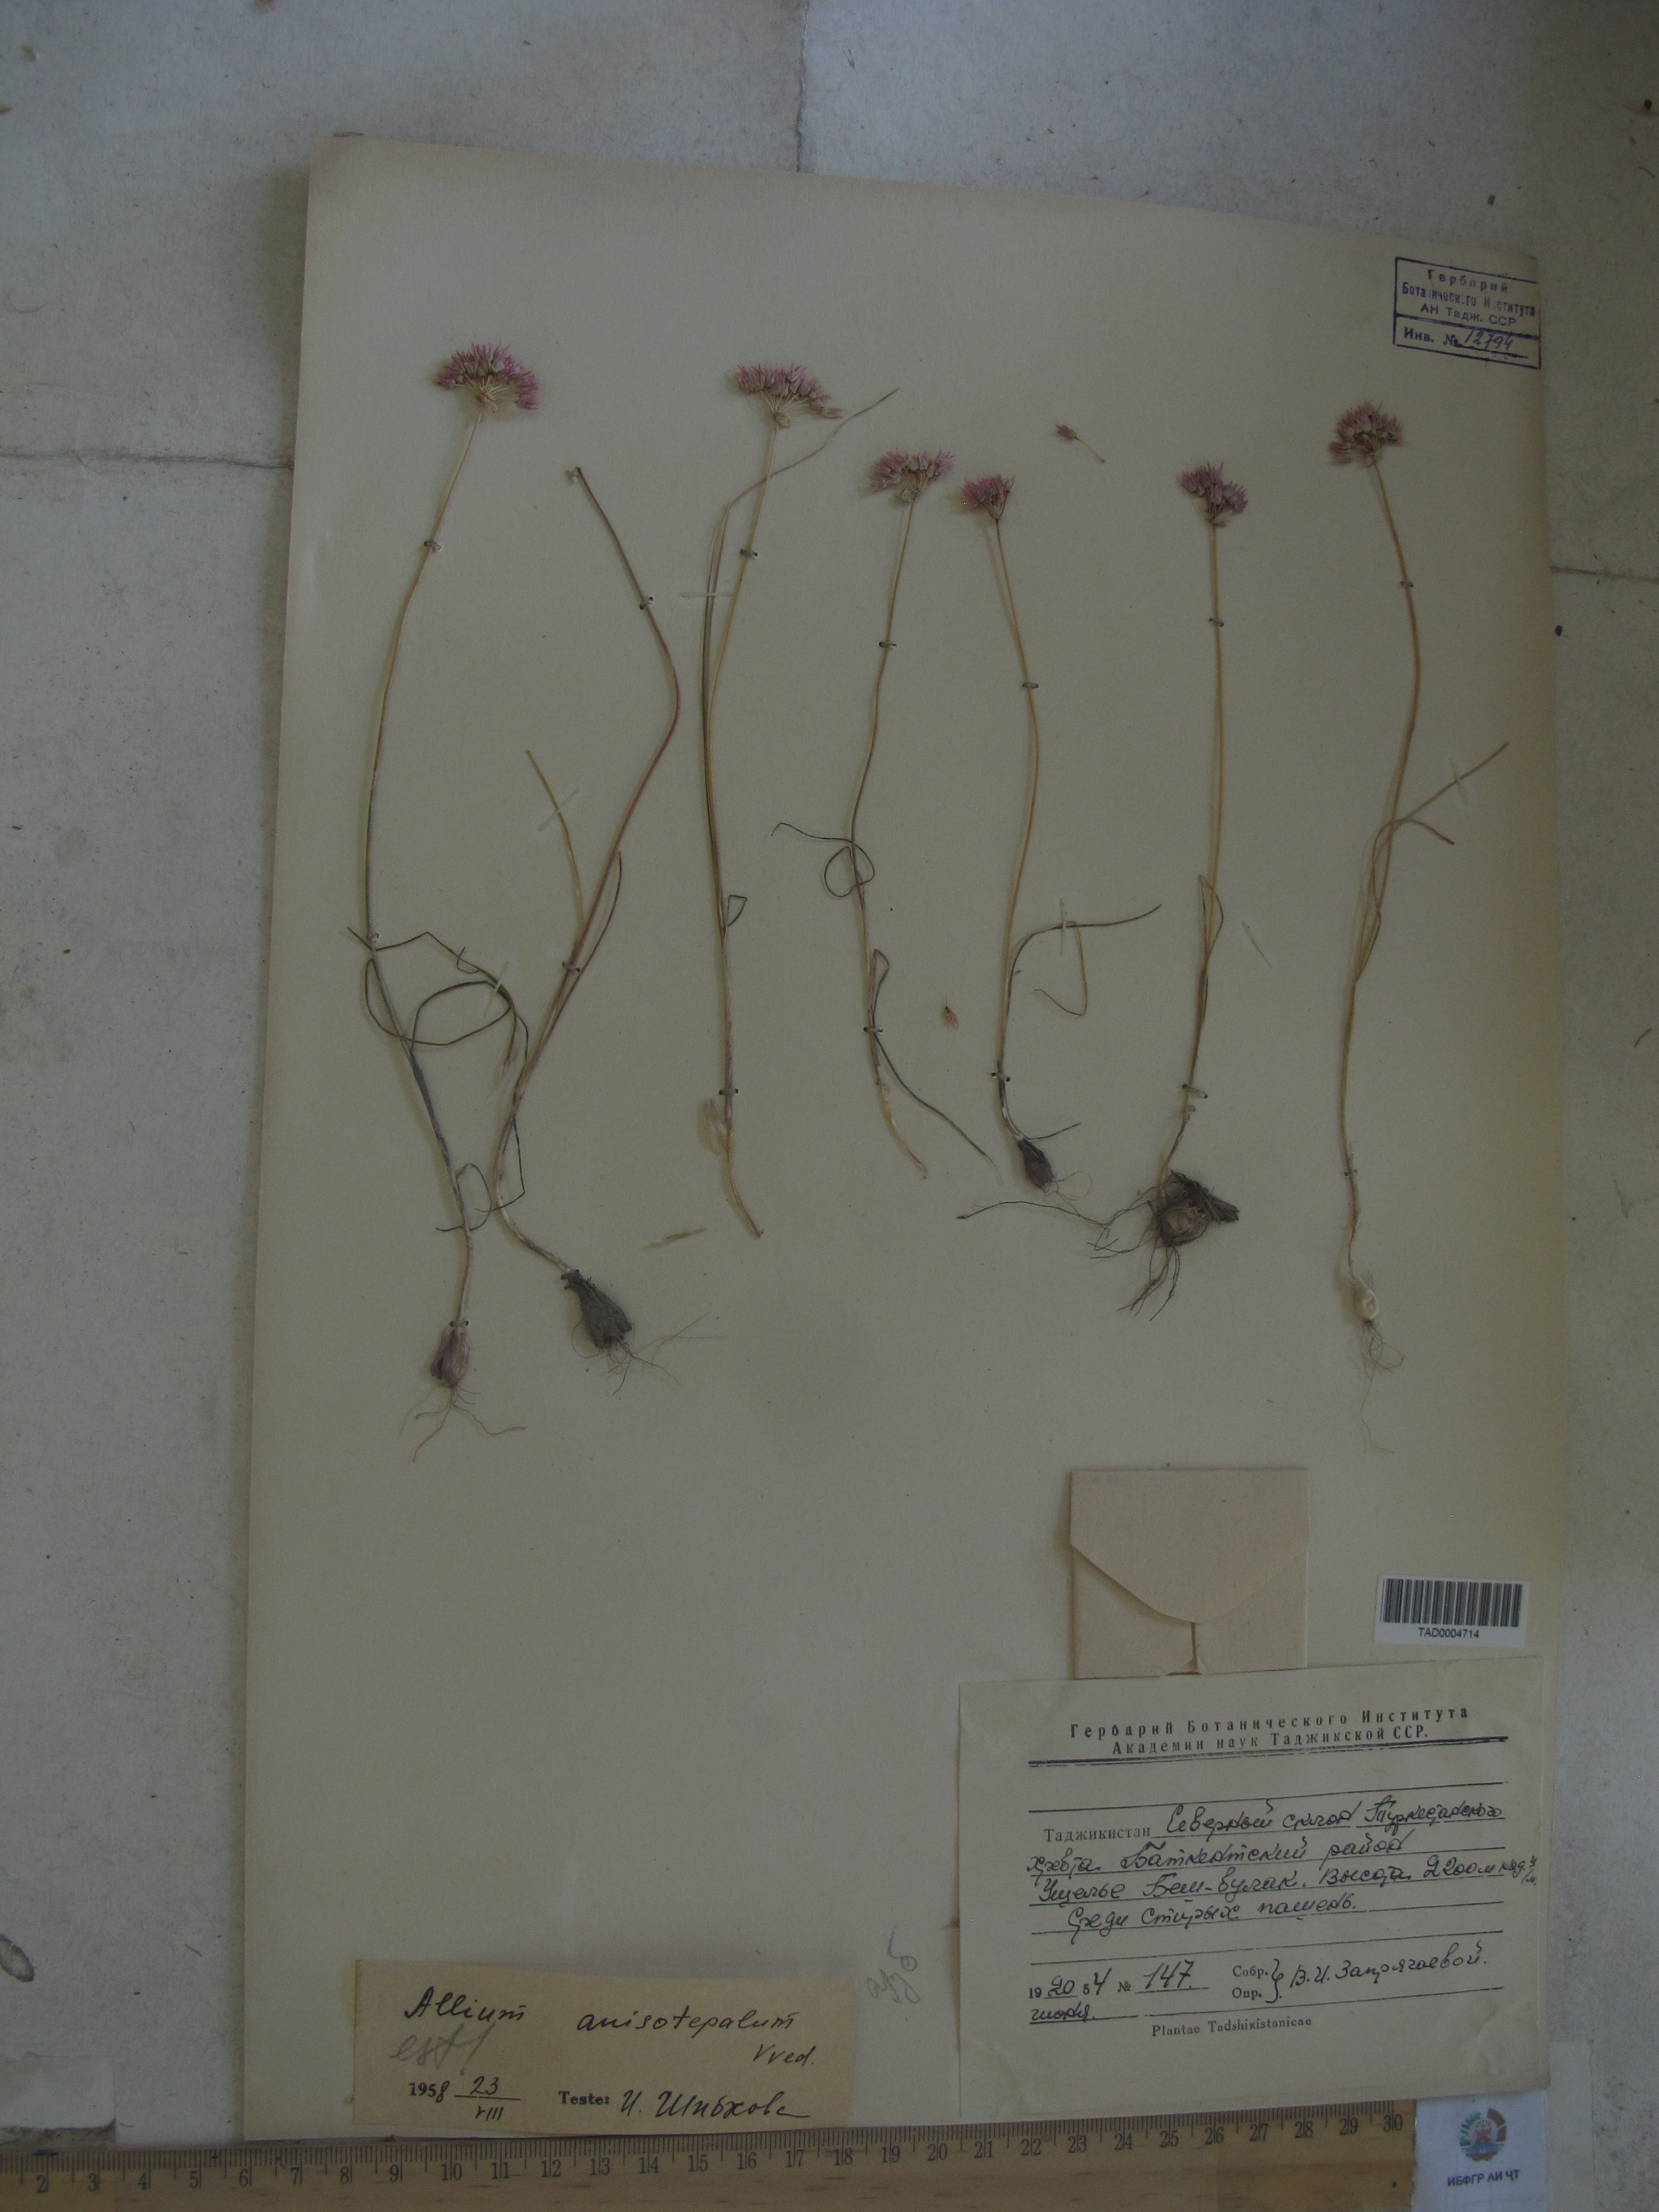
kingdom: Plantae
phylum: Tracheophyta
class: Liliopsida
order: Asparagales
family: Amaryllidaceae
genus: Allium
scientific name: Allium anisotepalum
